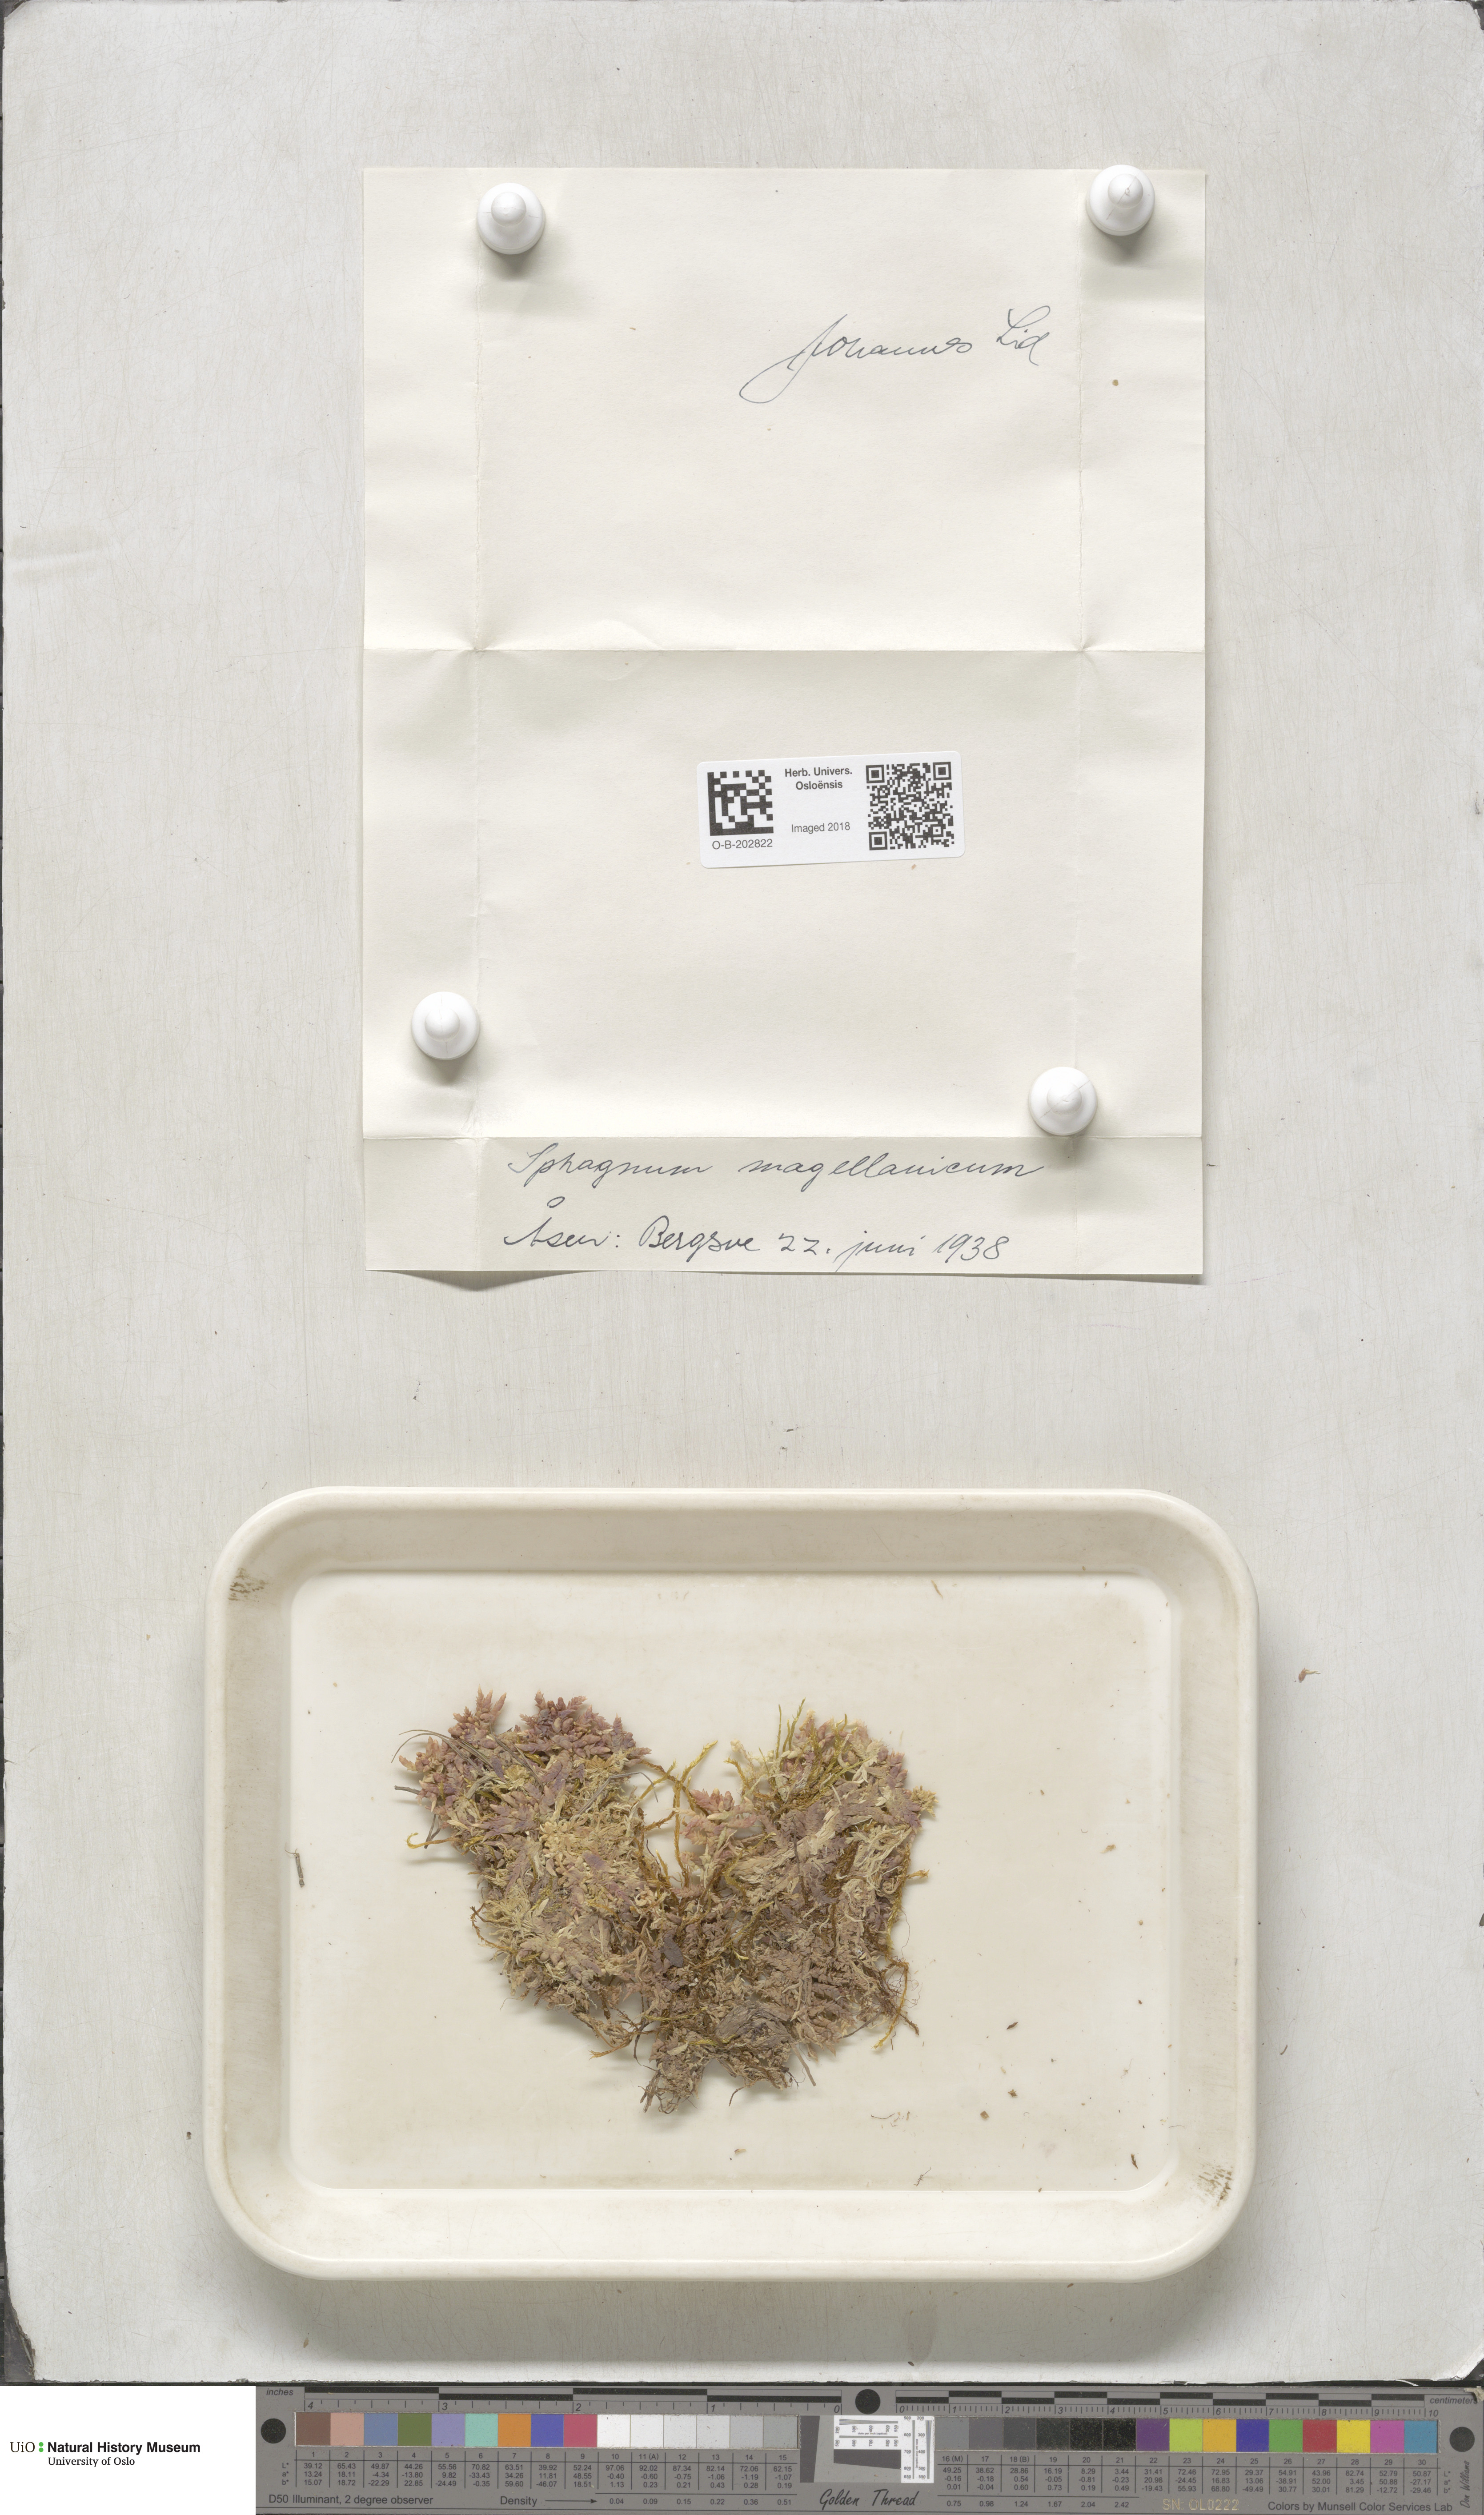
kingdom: Plantae
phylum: Bryophyta
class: Sphagnopsida
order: Sphagnales
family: Sphagnaceae
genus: Sphagnum
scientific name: Sphagnum magellanicum
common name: Magellan's peat moss
